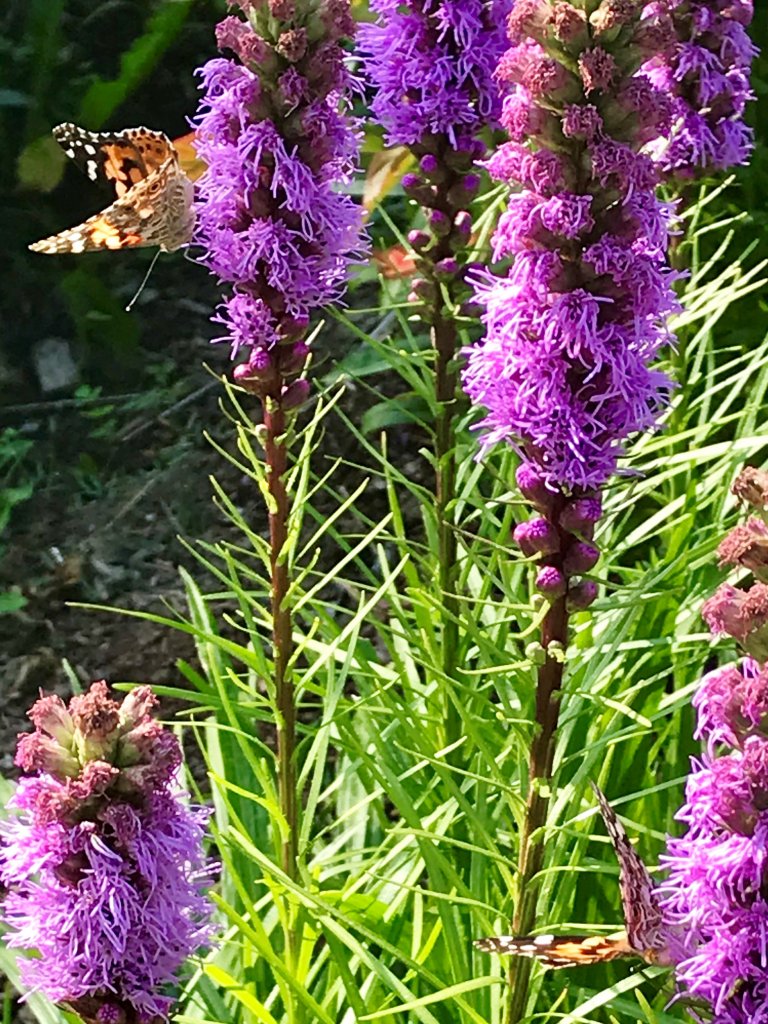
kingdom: Animalia
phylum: Arthropoda
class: Insecta
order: Lepidoptera
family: Nymphalidae
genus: Vanessa
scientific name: Vanessa cardui
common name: Painted Lady
